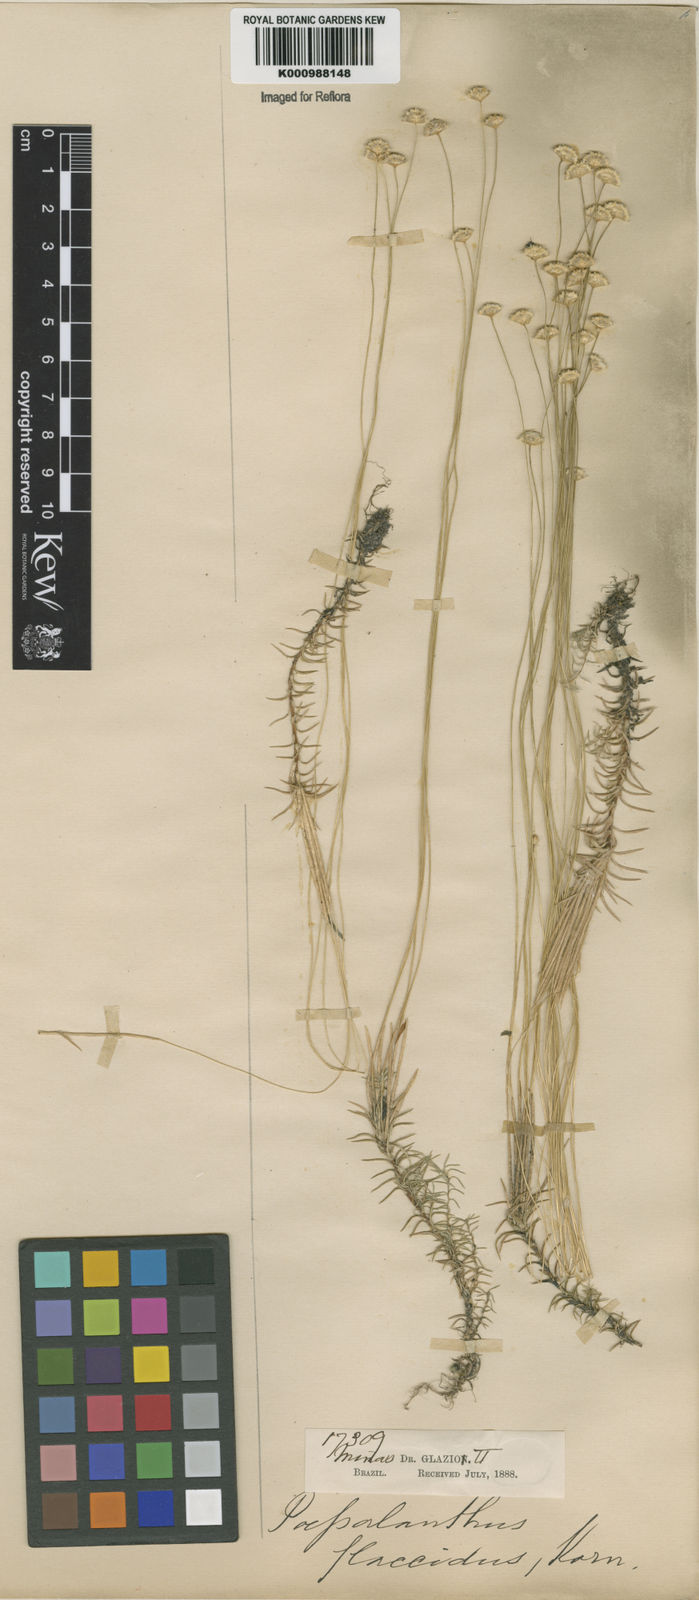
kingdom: Plantae
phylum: Tracheophyta
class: Liliopsida
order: Poales
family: Eriocaulaceae
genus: Paepalanthus
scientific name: Paepalanthus flaccidus
